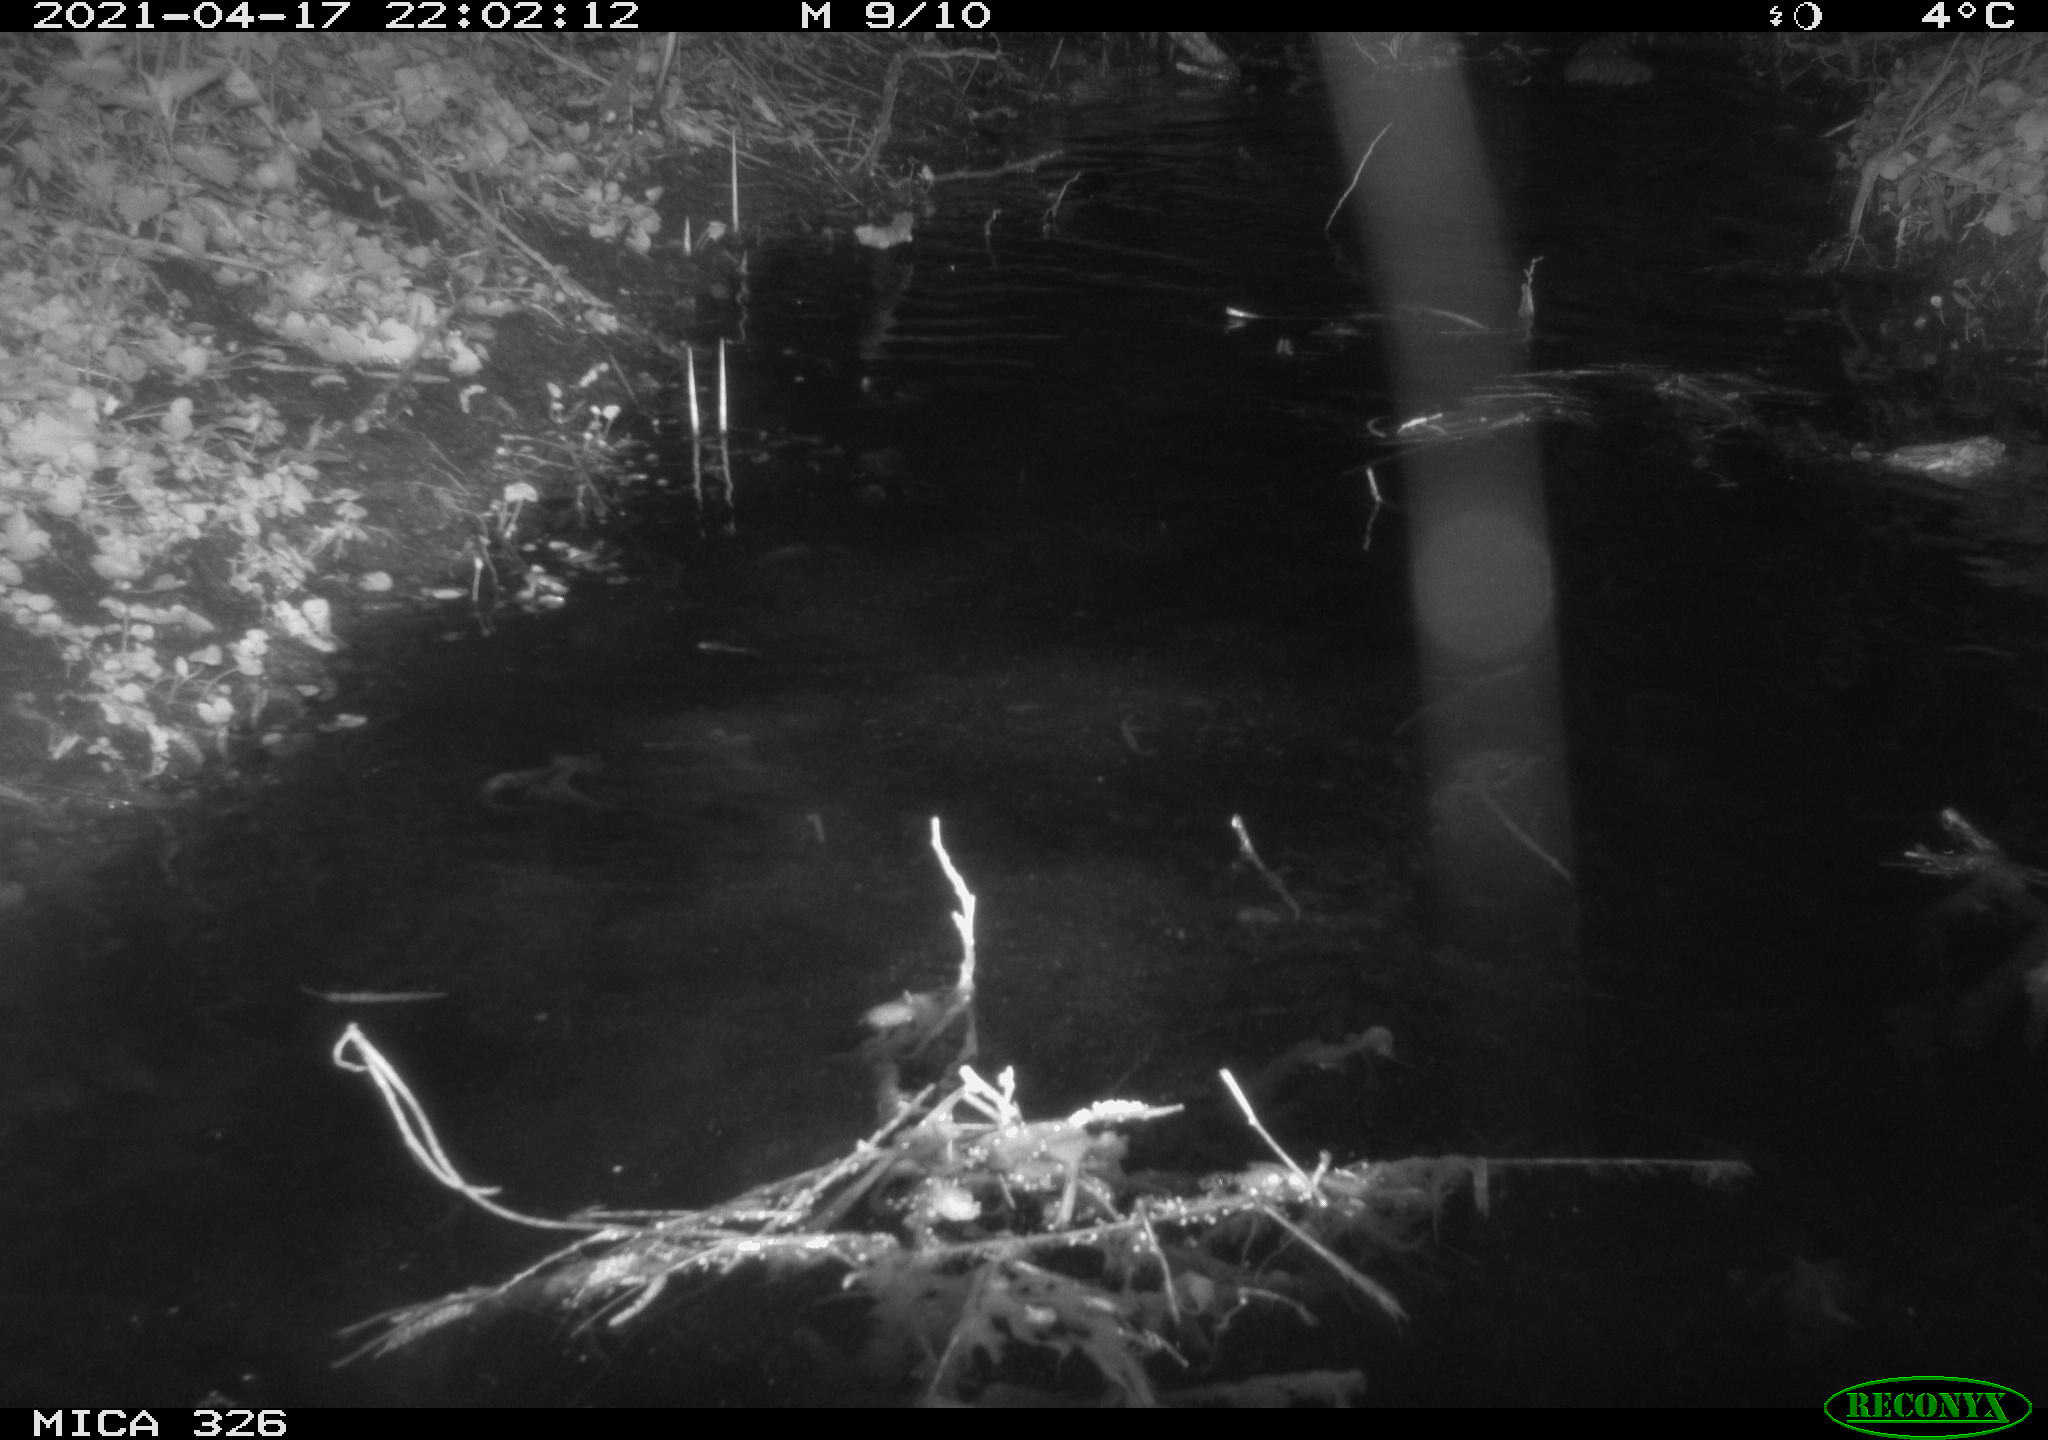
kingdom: Animalia
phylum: Chordata
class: Mammalia
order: Rodentia
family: Cricetidae
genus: Ondatra
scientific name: Ondatra zibethicus
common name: Muskrat
